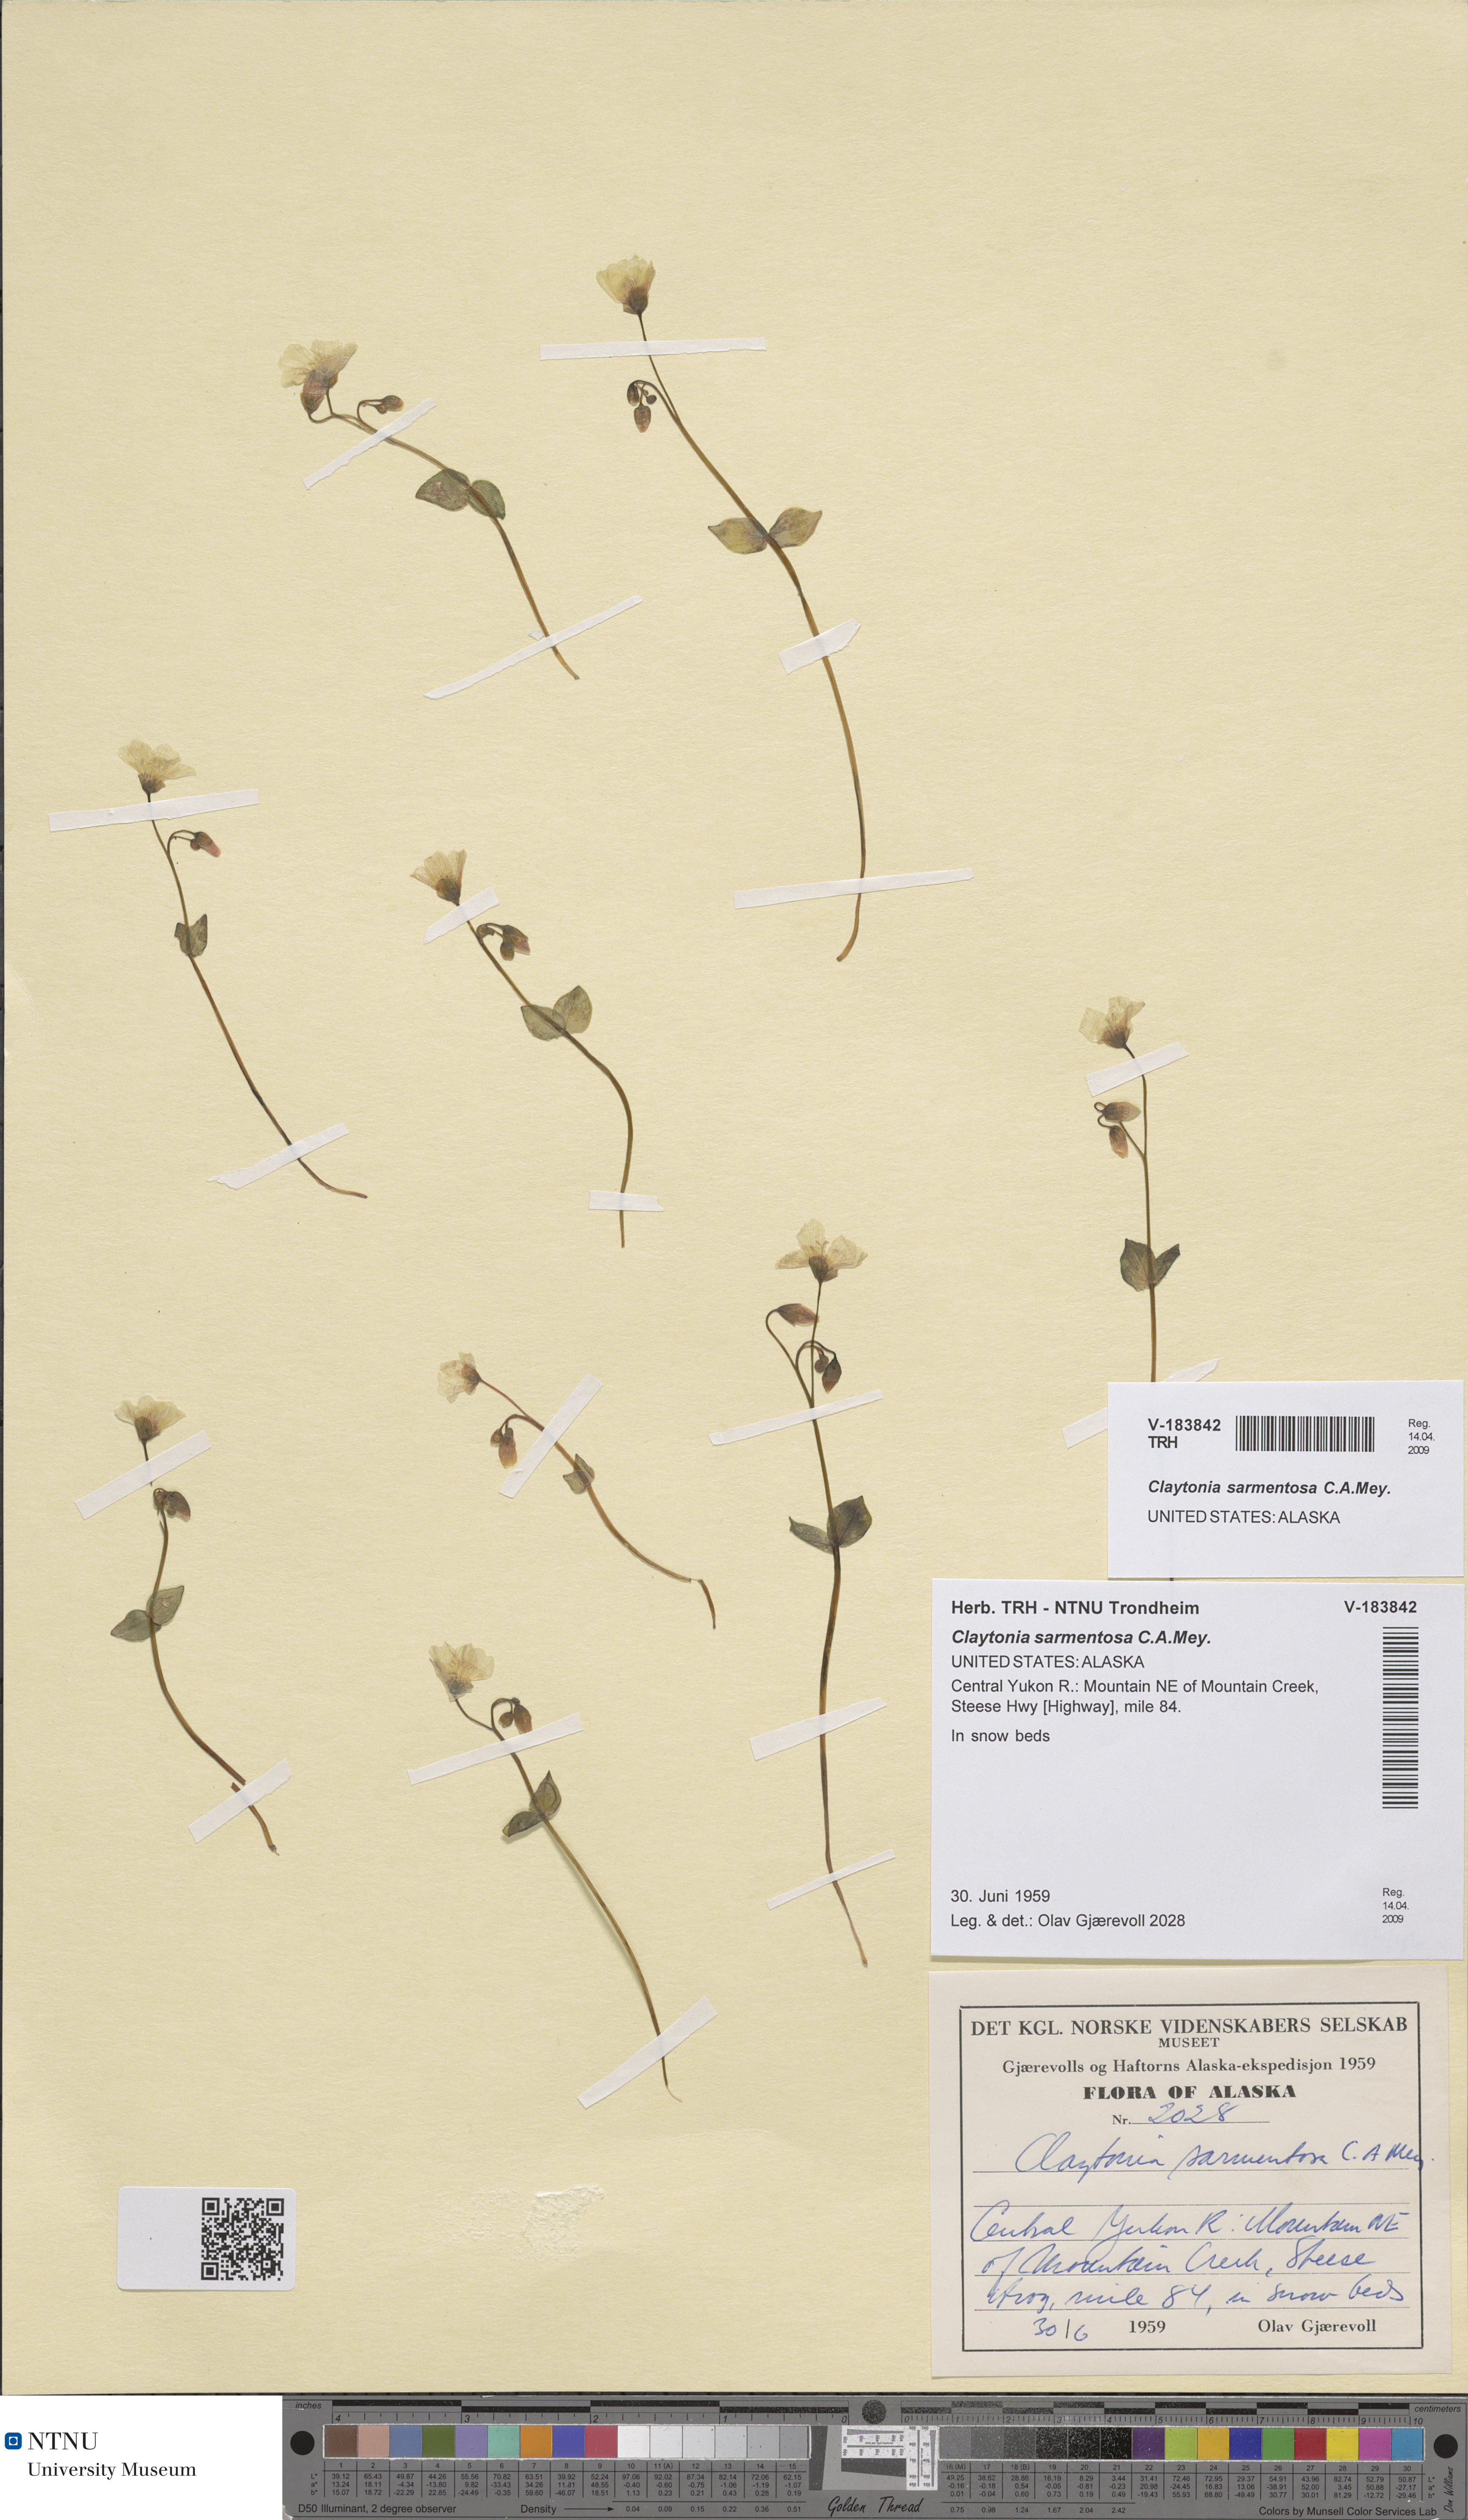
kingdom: Plantae
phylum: Tracheophyta
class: Magnoliopsida
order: Caryophyllales
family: Montiaceae
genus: Claytonia
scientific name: Claytonia sarmentosa
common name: Alaska spring beauty
